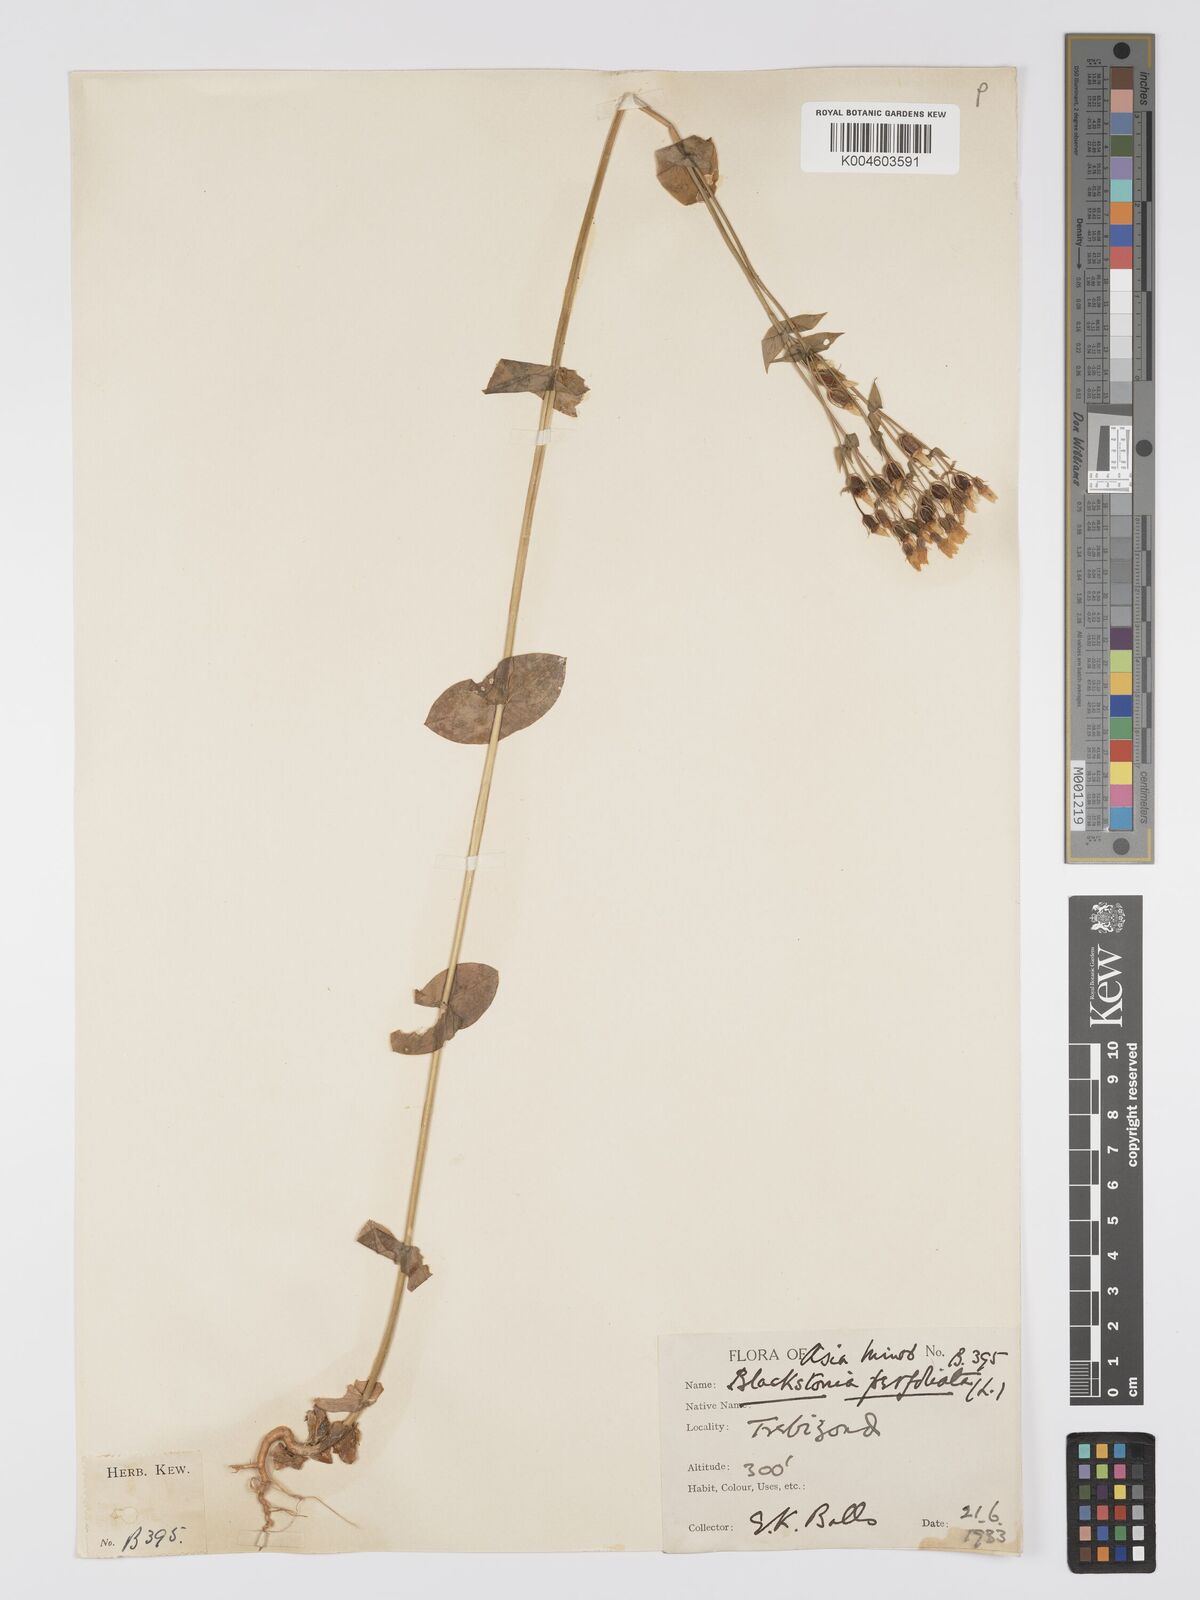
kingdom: Plantae
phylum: Tracheophyta
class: Magnoliopsida
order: Gentianales
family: Gentianaceae
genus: Blackstonia
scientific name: Blackstonia perfoliata
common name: Yellow-wort
